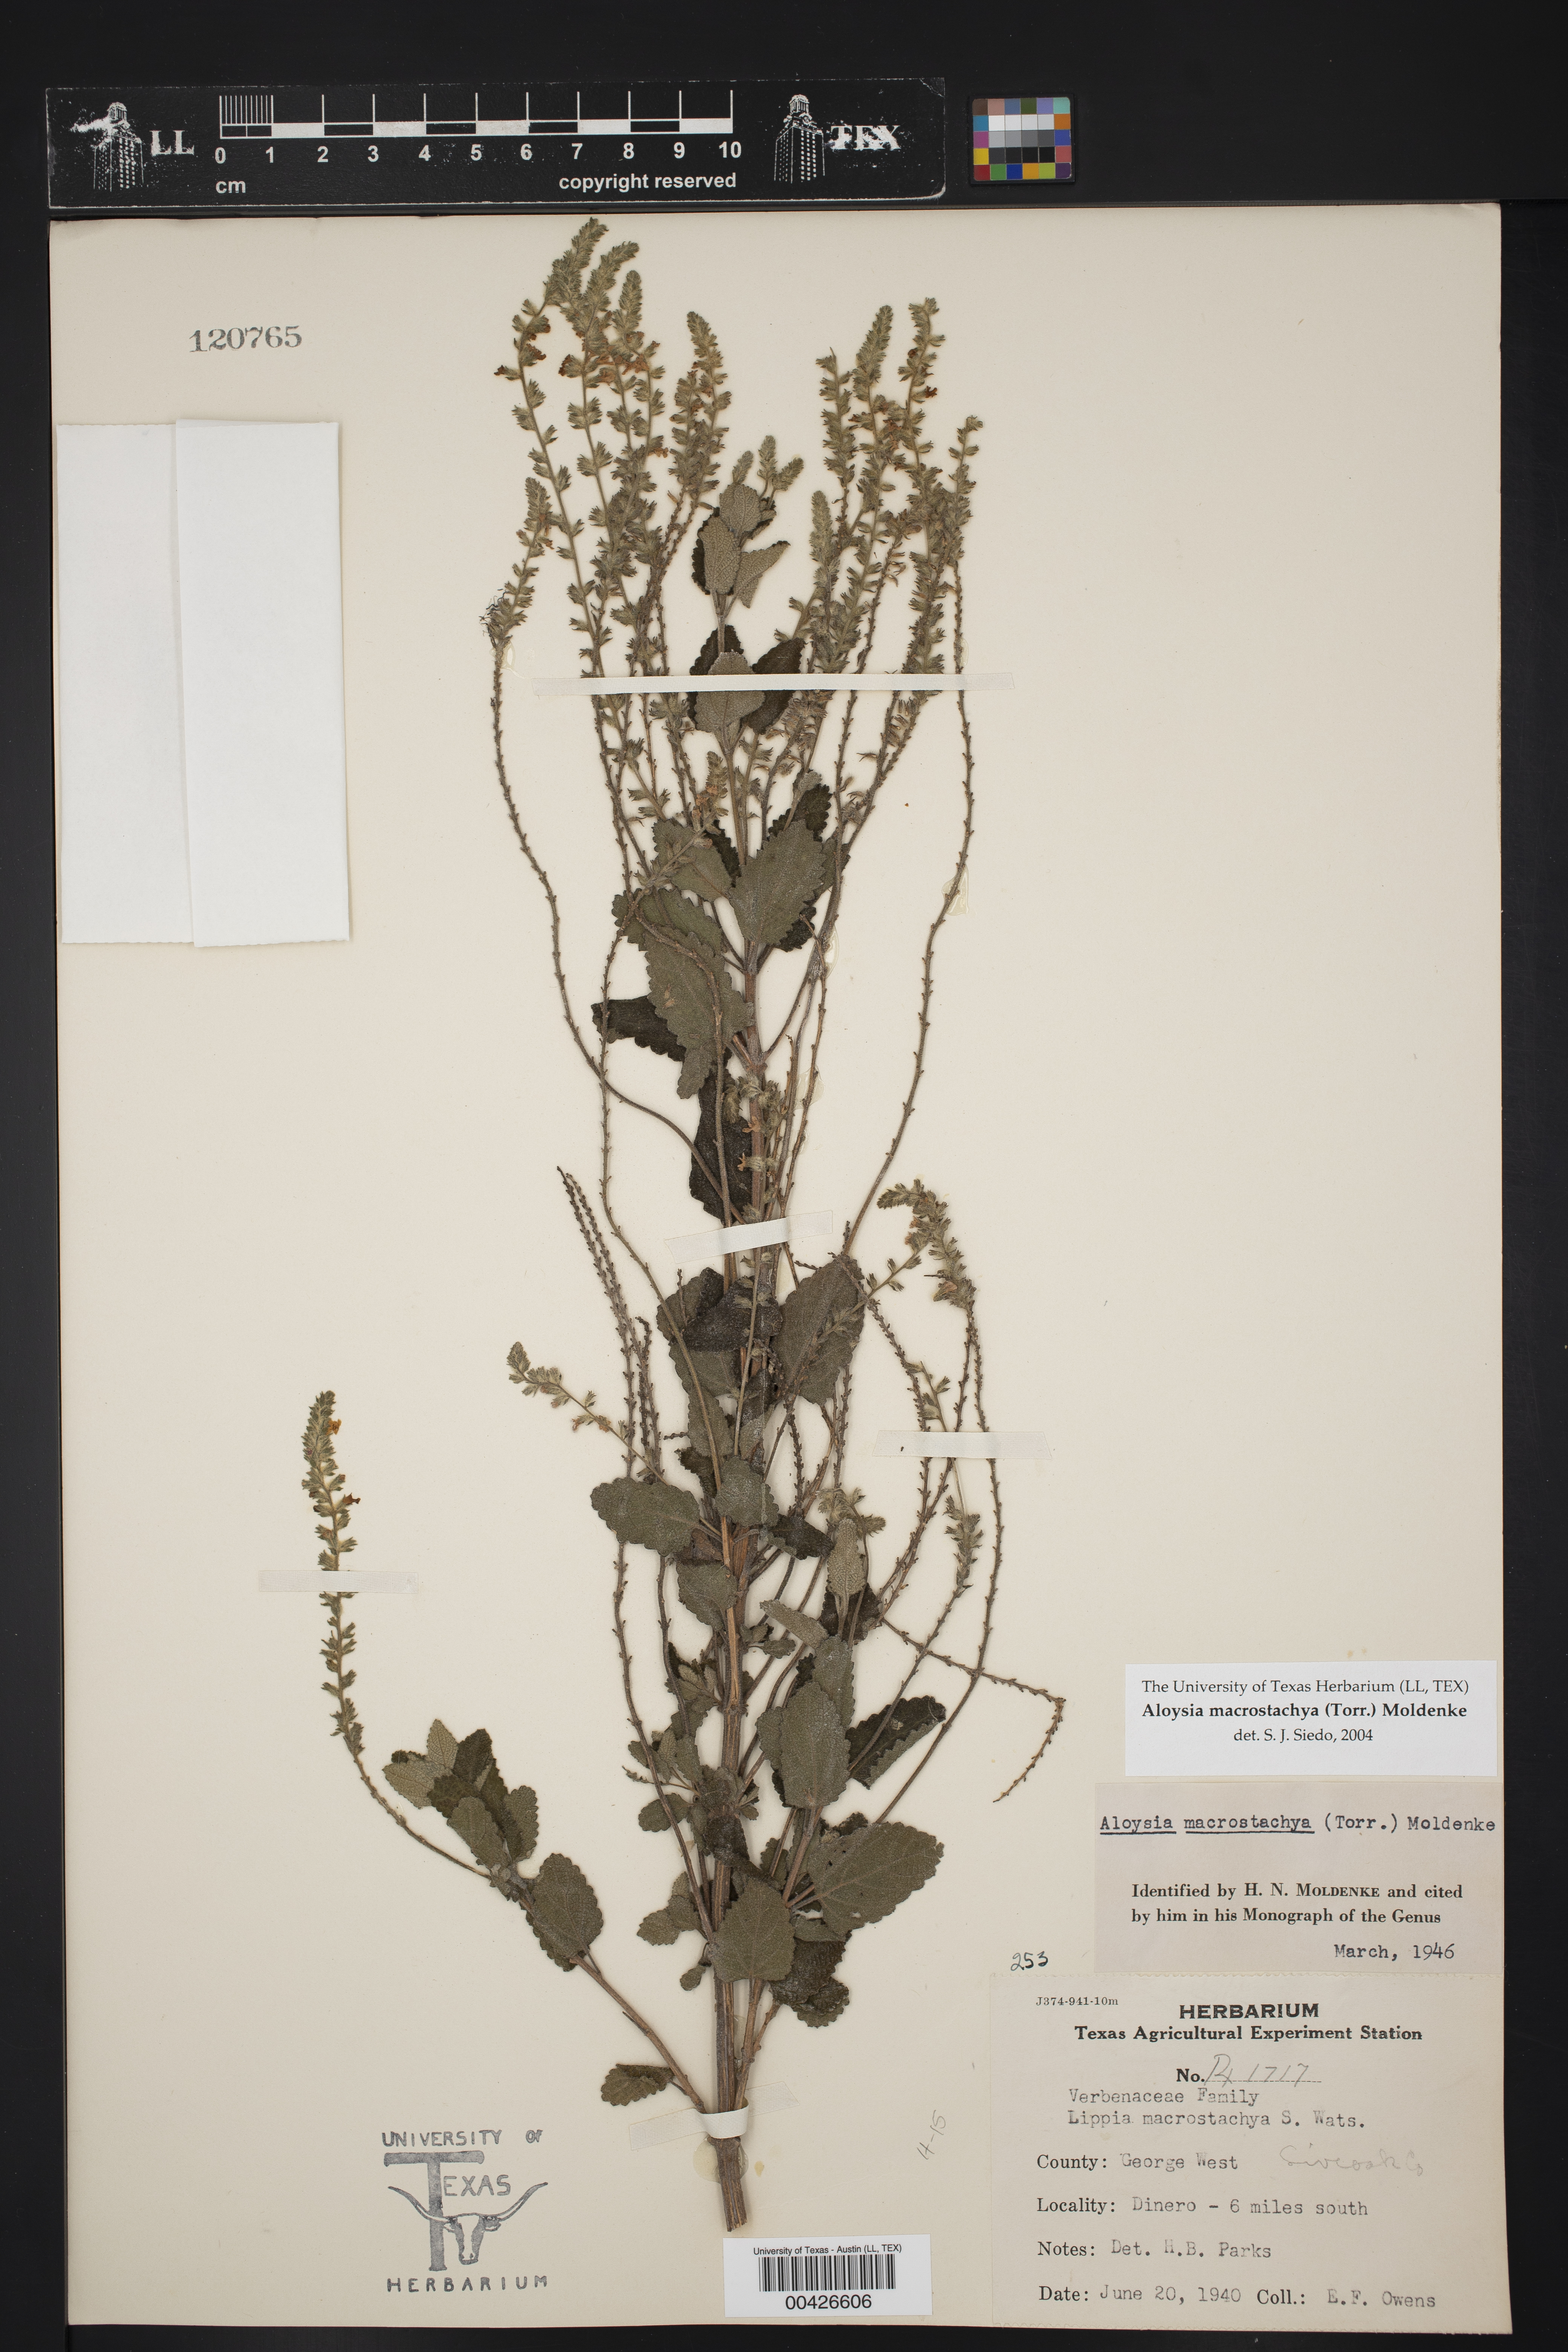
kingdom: Plantae
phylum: Tracheophyta
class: Magnoliopsida
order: Lamiales
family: Verbenaceae
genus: Aloysia
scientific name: Aloysia macrostachya
